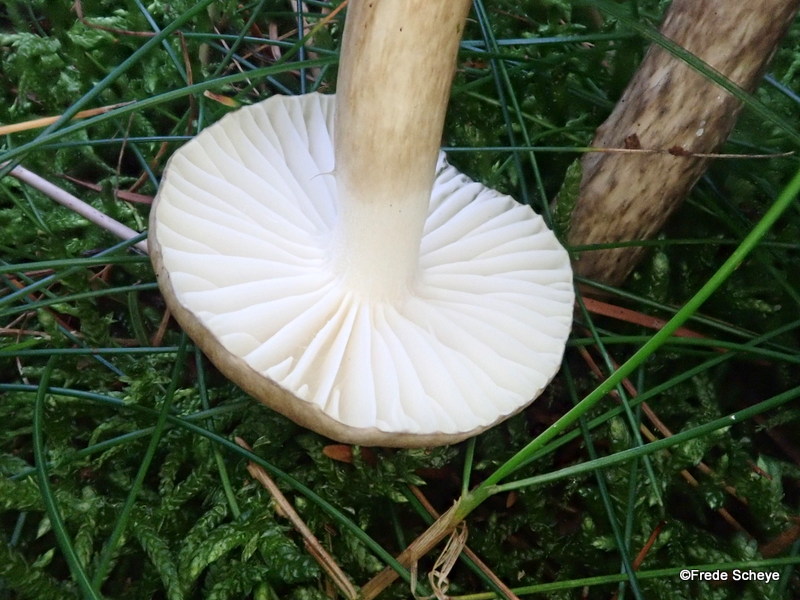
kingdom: Fungi
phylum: Basidiomycota
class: Agaricomycetes
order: Agaricales
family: Hygrophoraceae
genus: Hygrophorus
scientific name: Hygrophorus olivaceoalbus
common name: hvidbrun sneglehat
